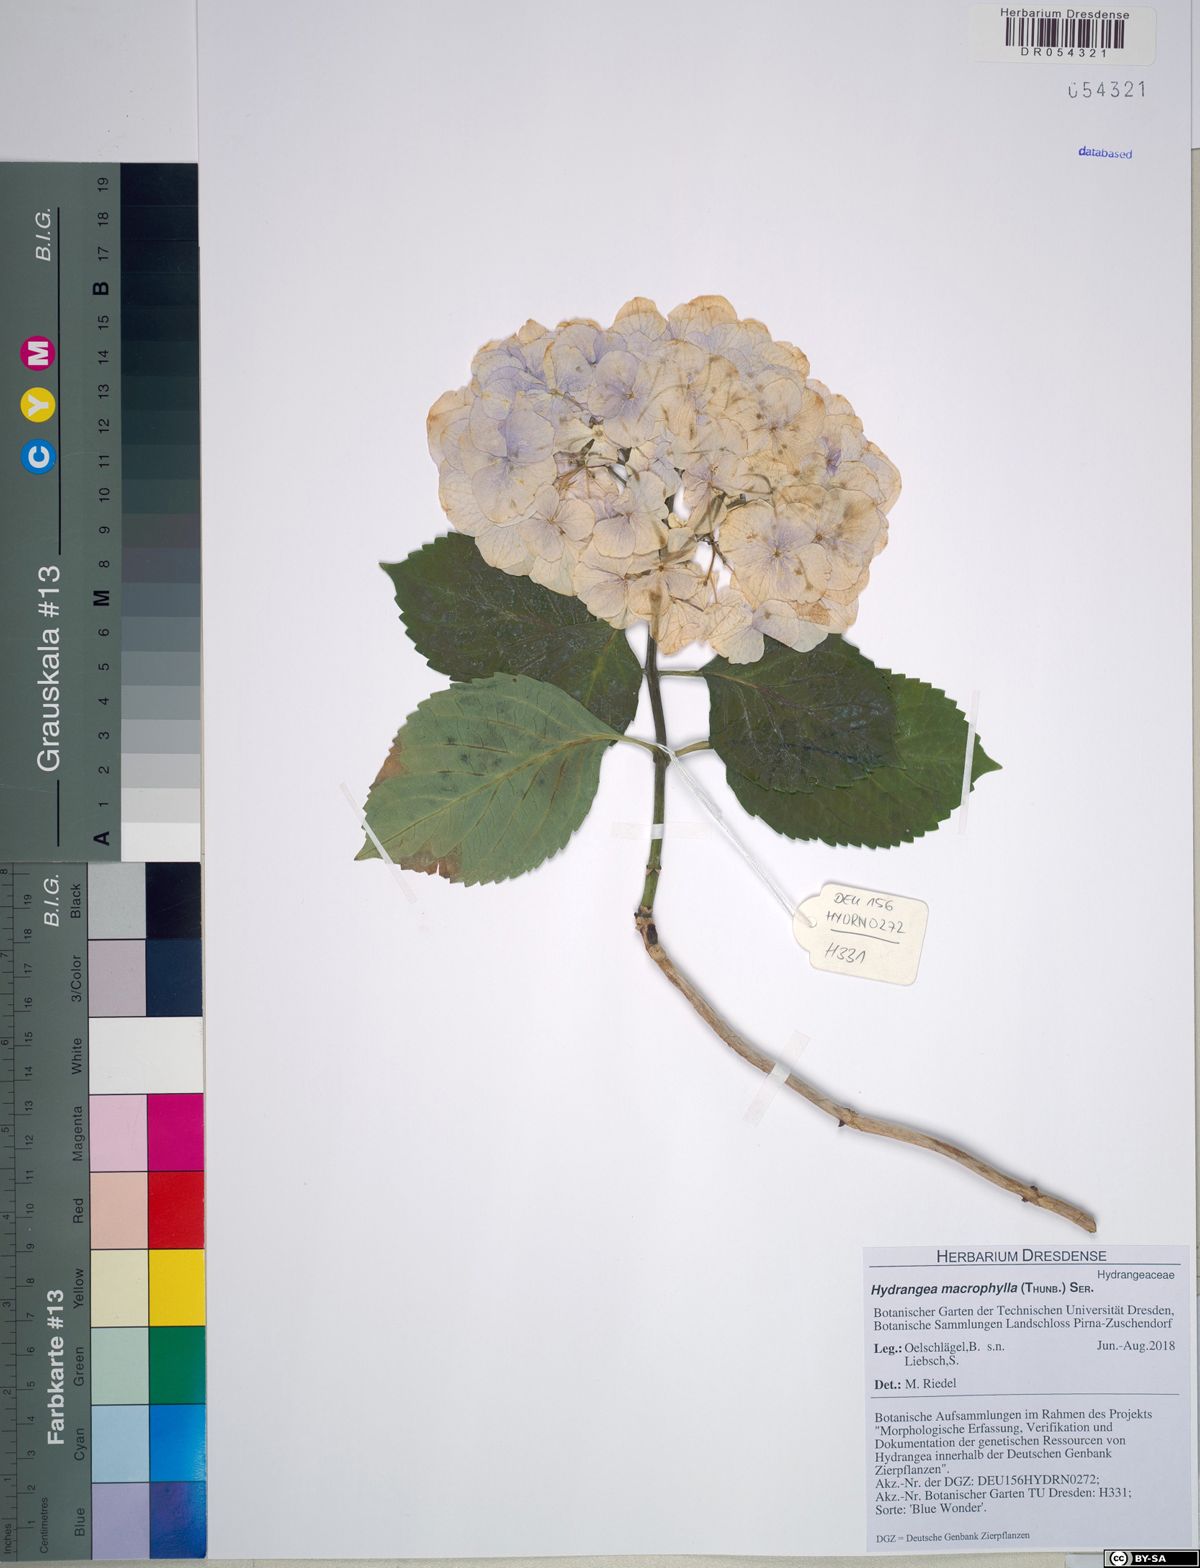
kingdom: Plantae
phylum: Tracheophyta
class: Magnoliopsida
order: Cornales
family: Hydrangeaceae
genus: Hydrangea
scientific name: Hydrangea macrophylla
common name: Hydrangea
